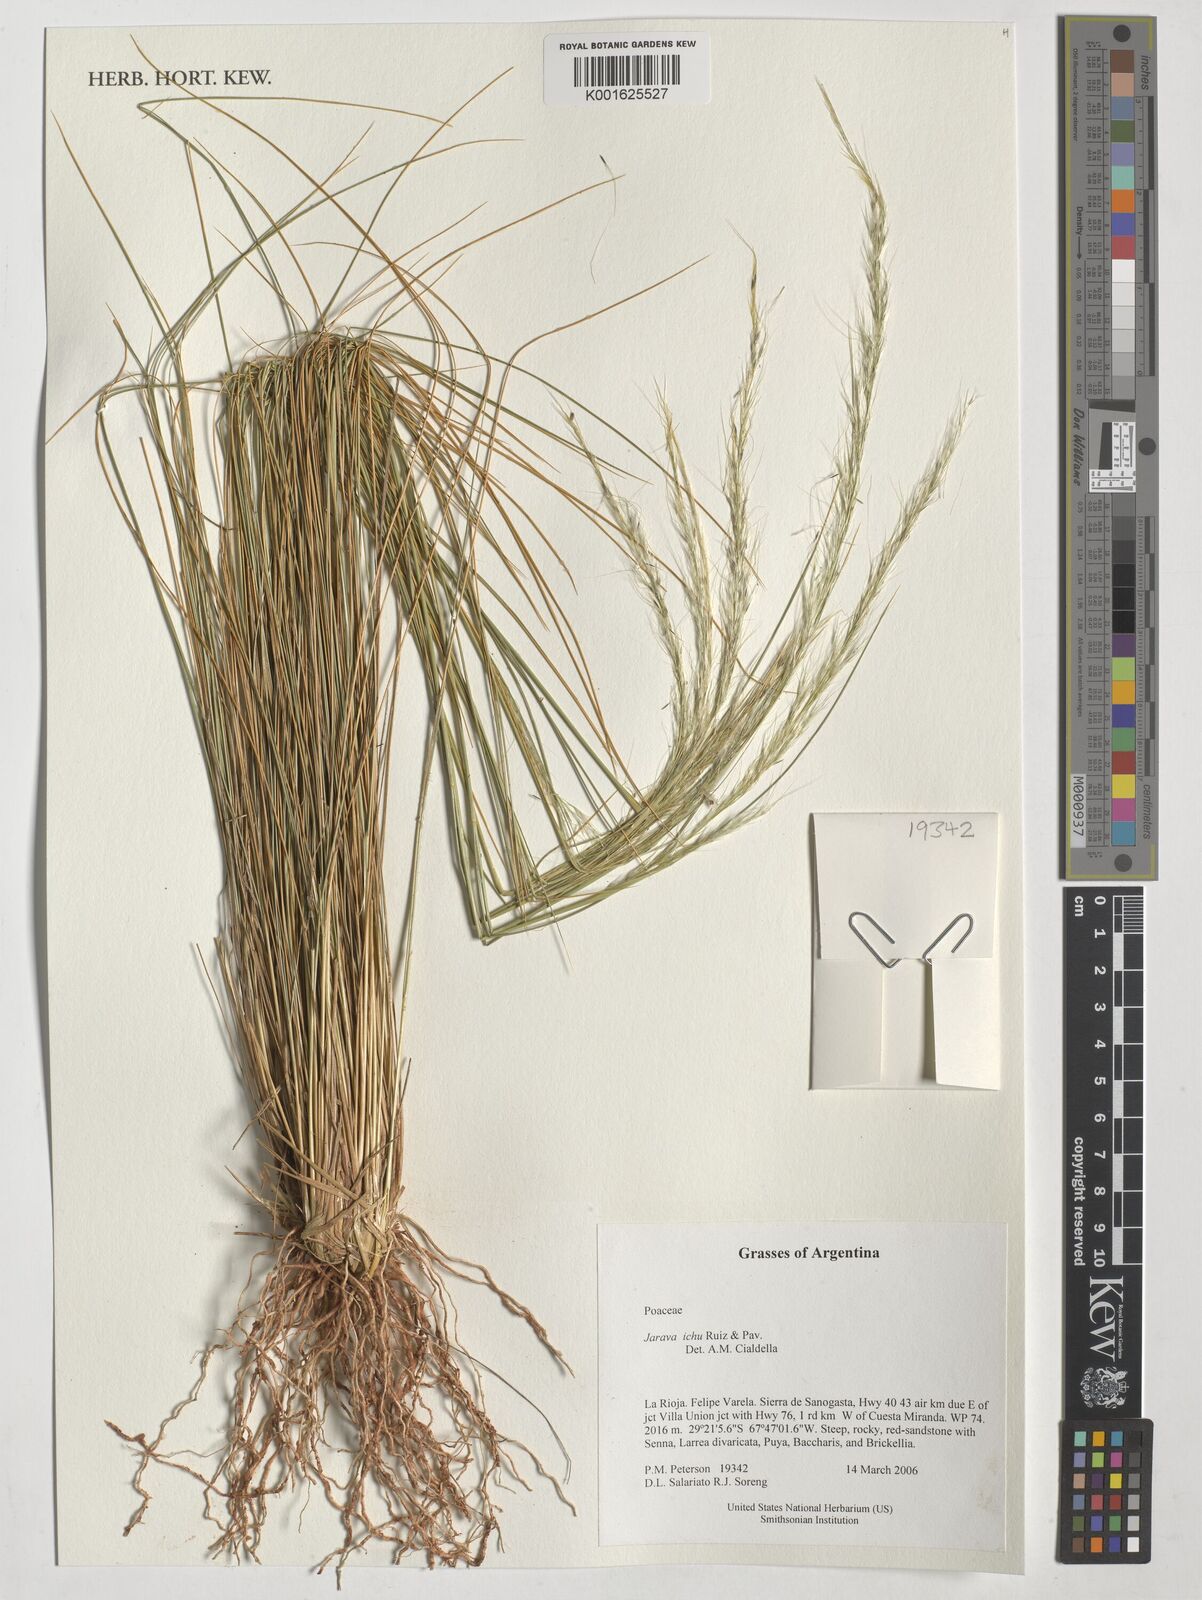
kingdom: Plantae
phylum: Tracheophyta
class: Liliopsida
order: Poales
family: Poaceae
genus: Jarava
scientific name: Jarava ichu
